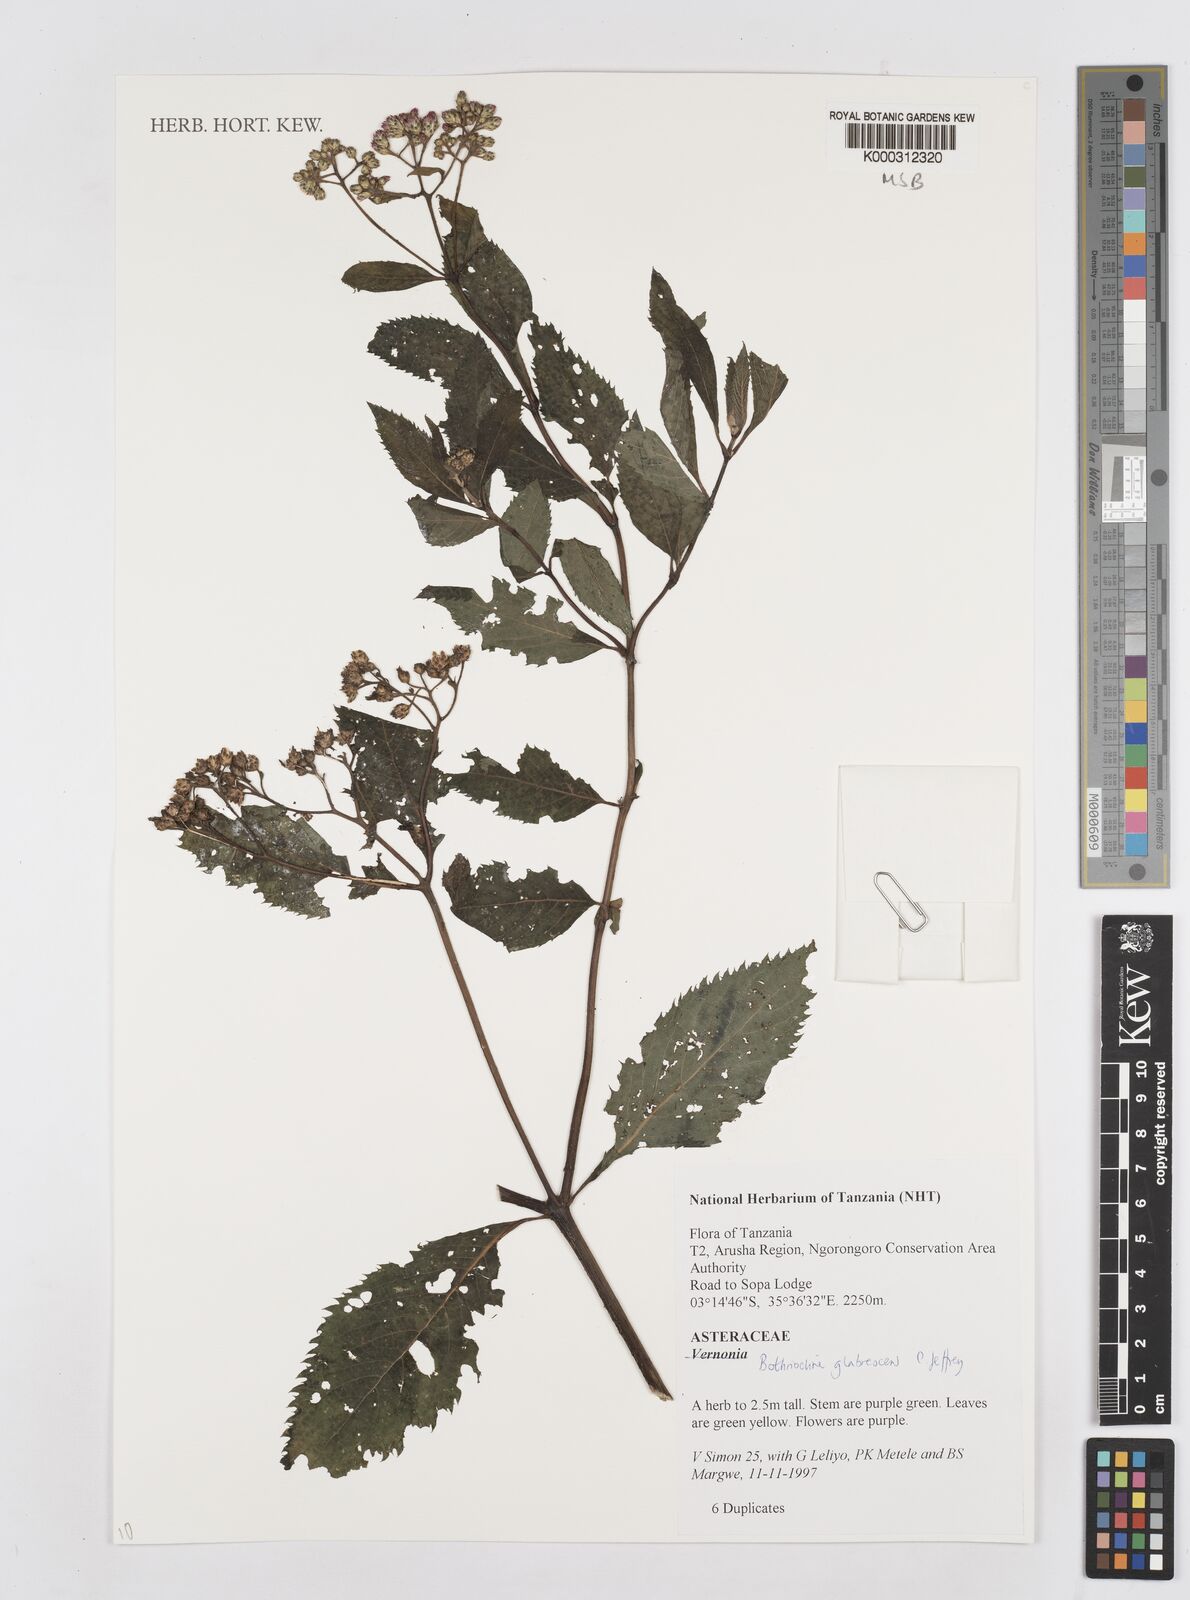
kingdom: Plantae
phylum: Tracheophyta
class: Magnoliopsida
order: Asterales
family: Asteraceae
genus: Bothriocline
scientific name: Bothriocline glabrescens
